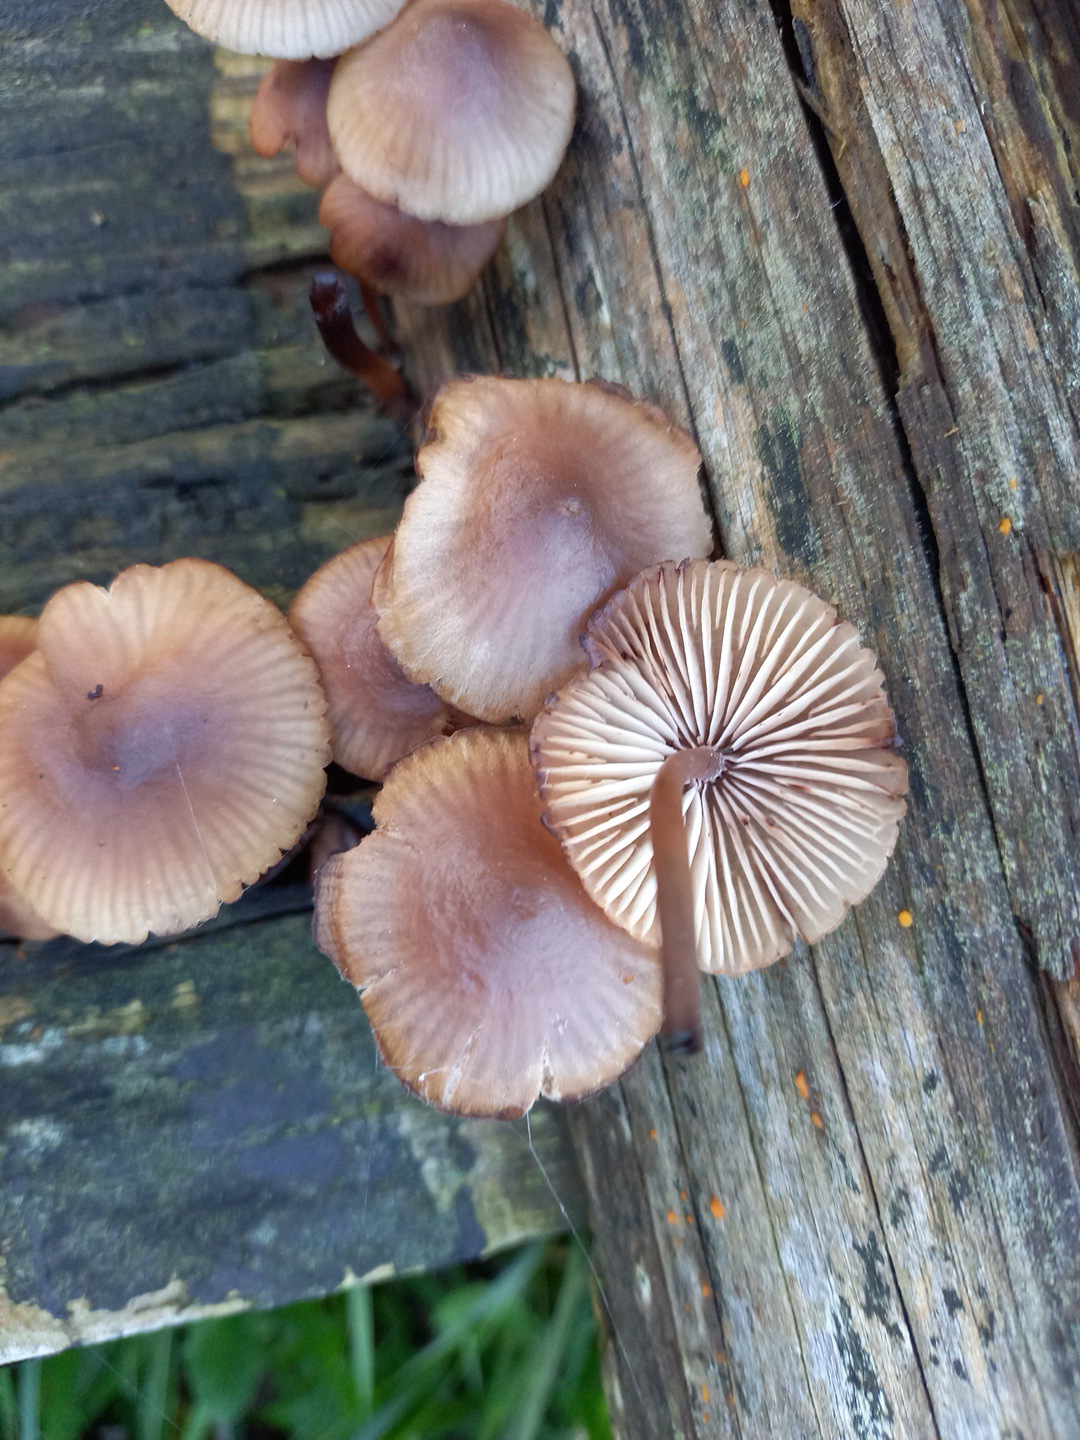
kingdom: Fungi
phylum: Basidiomycota
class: Agaricomycetes
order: Agaricales
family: Mycenaceae
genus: Mycena
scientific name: Mycena haematopus
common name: blødende huesvamp
